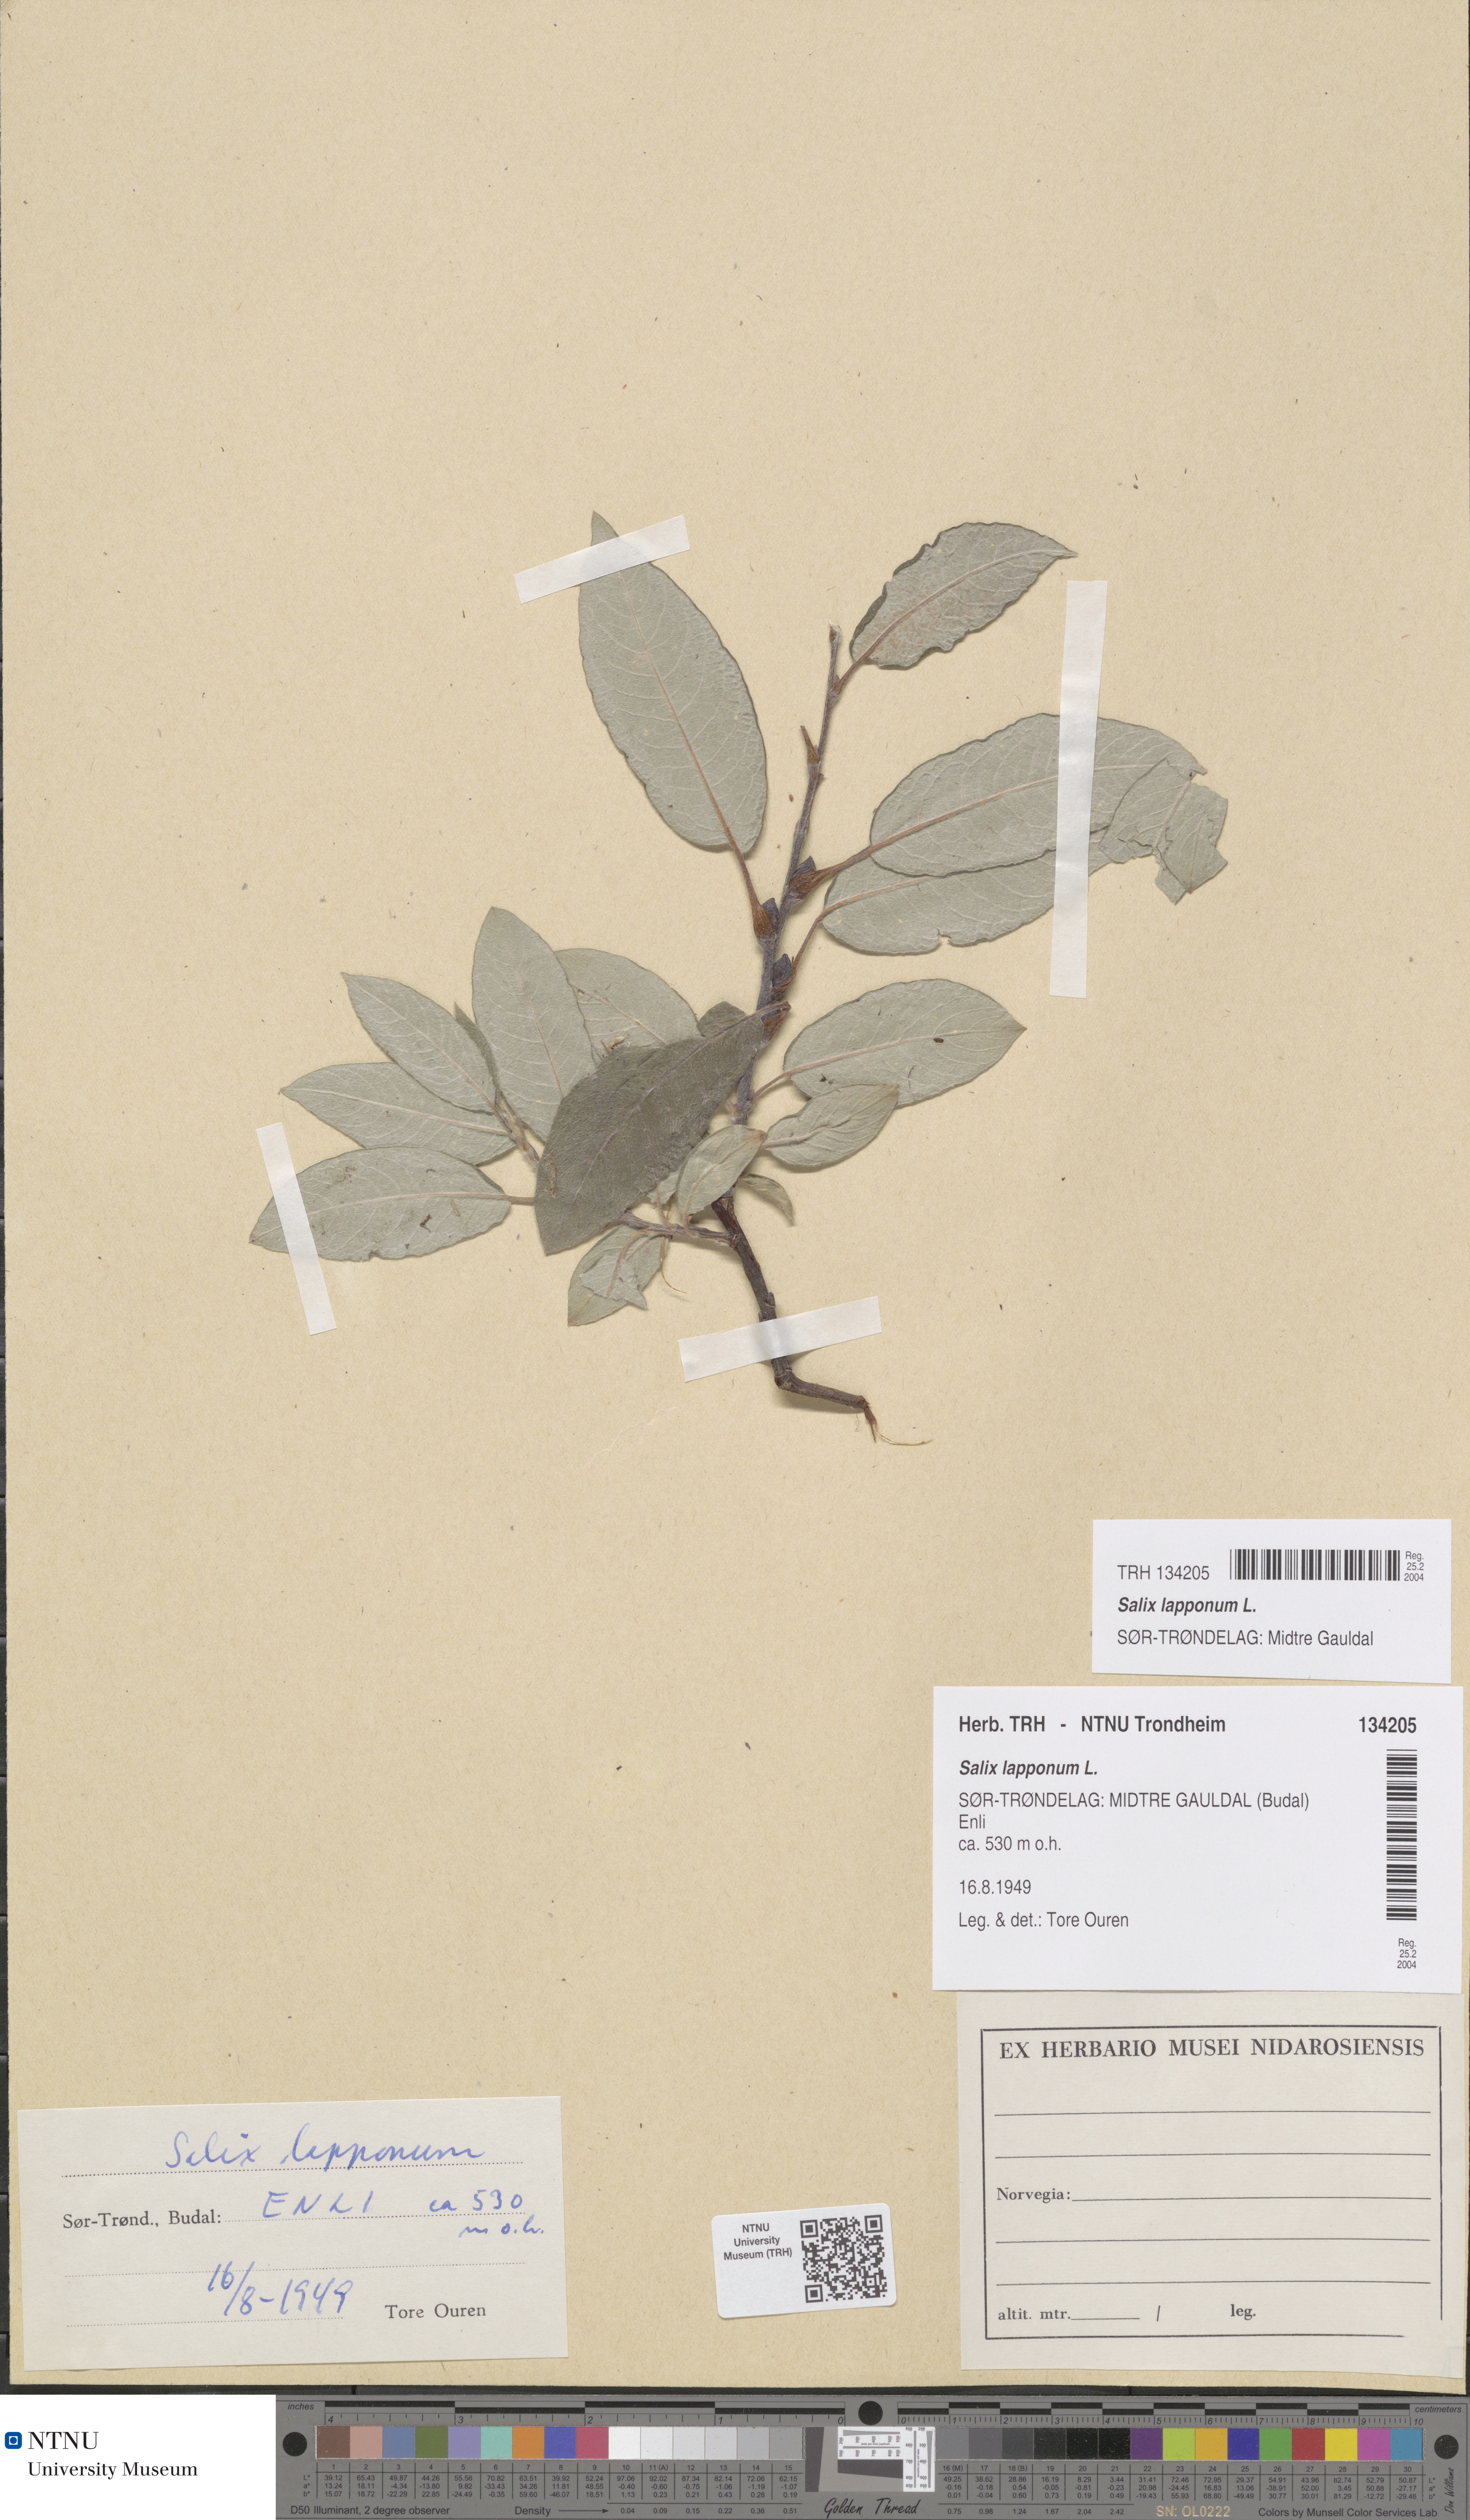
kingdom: Plantae
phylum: Tracheophyta
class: Magnoliopsida
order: Malpighiales
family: Salicaceae
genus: Salix
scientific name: Salix lapponum
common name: Downy willow
